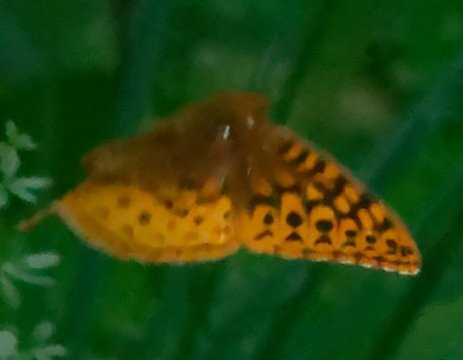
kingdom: Animalia
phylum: Arthropoda
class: Insecta
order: Lepidoptera
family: Nymphalidae
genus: Speyeria
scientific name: Speyeria cybele
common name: Great Spangled Fritillary
